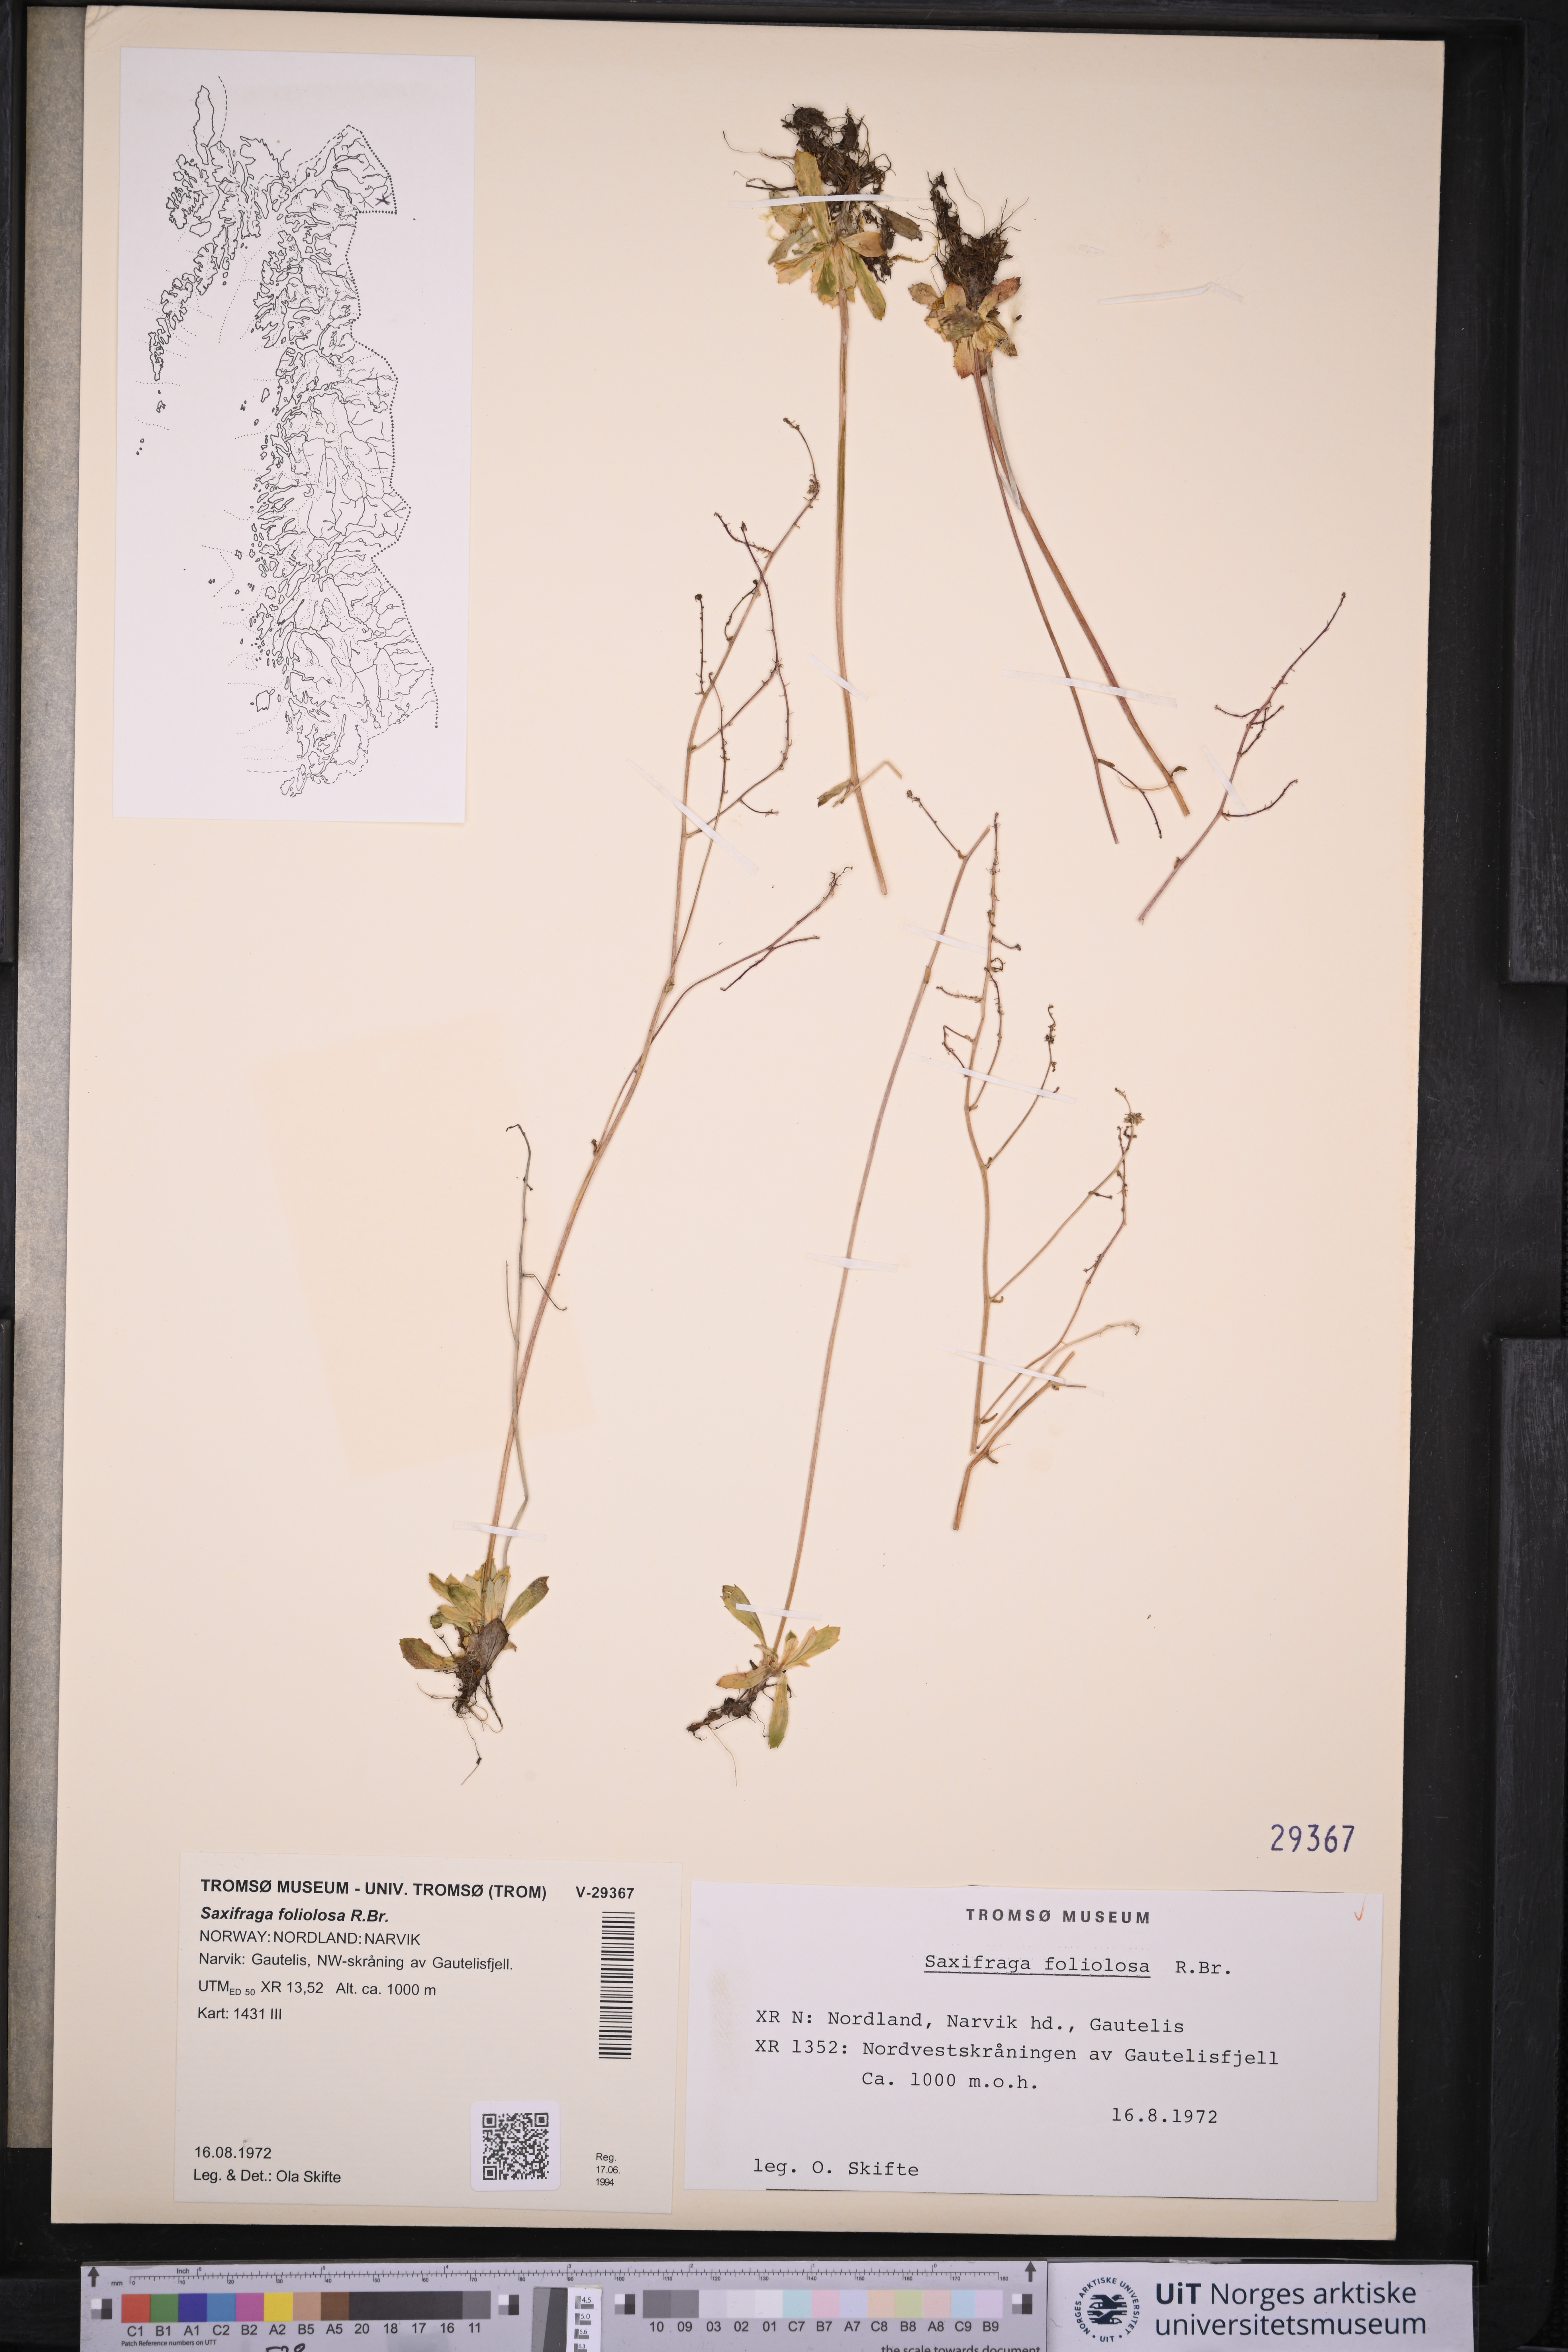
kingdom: Plantae
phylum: Tracheophyta
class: Magnoliopsida
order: Saxifragales
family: Saxifragaceae
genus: Micranthes
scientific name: Micranthes foliolosa
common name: Leafystem saxifrage
